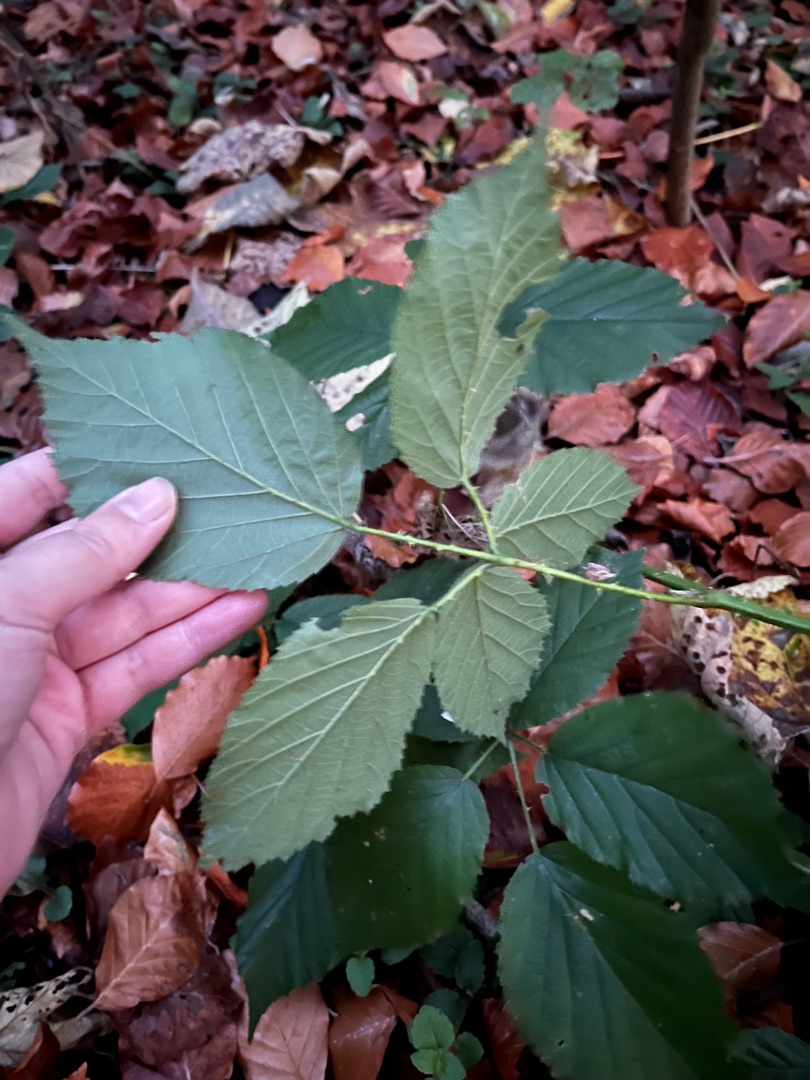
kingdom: Plantae
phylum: Tracheophyta
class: Magnoliopsida
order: Rosales
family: Rosaceae
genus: Rubus
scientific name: Rubus
